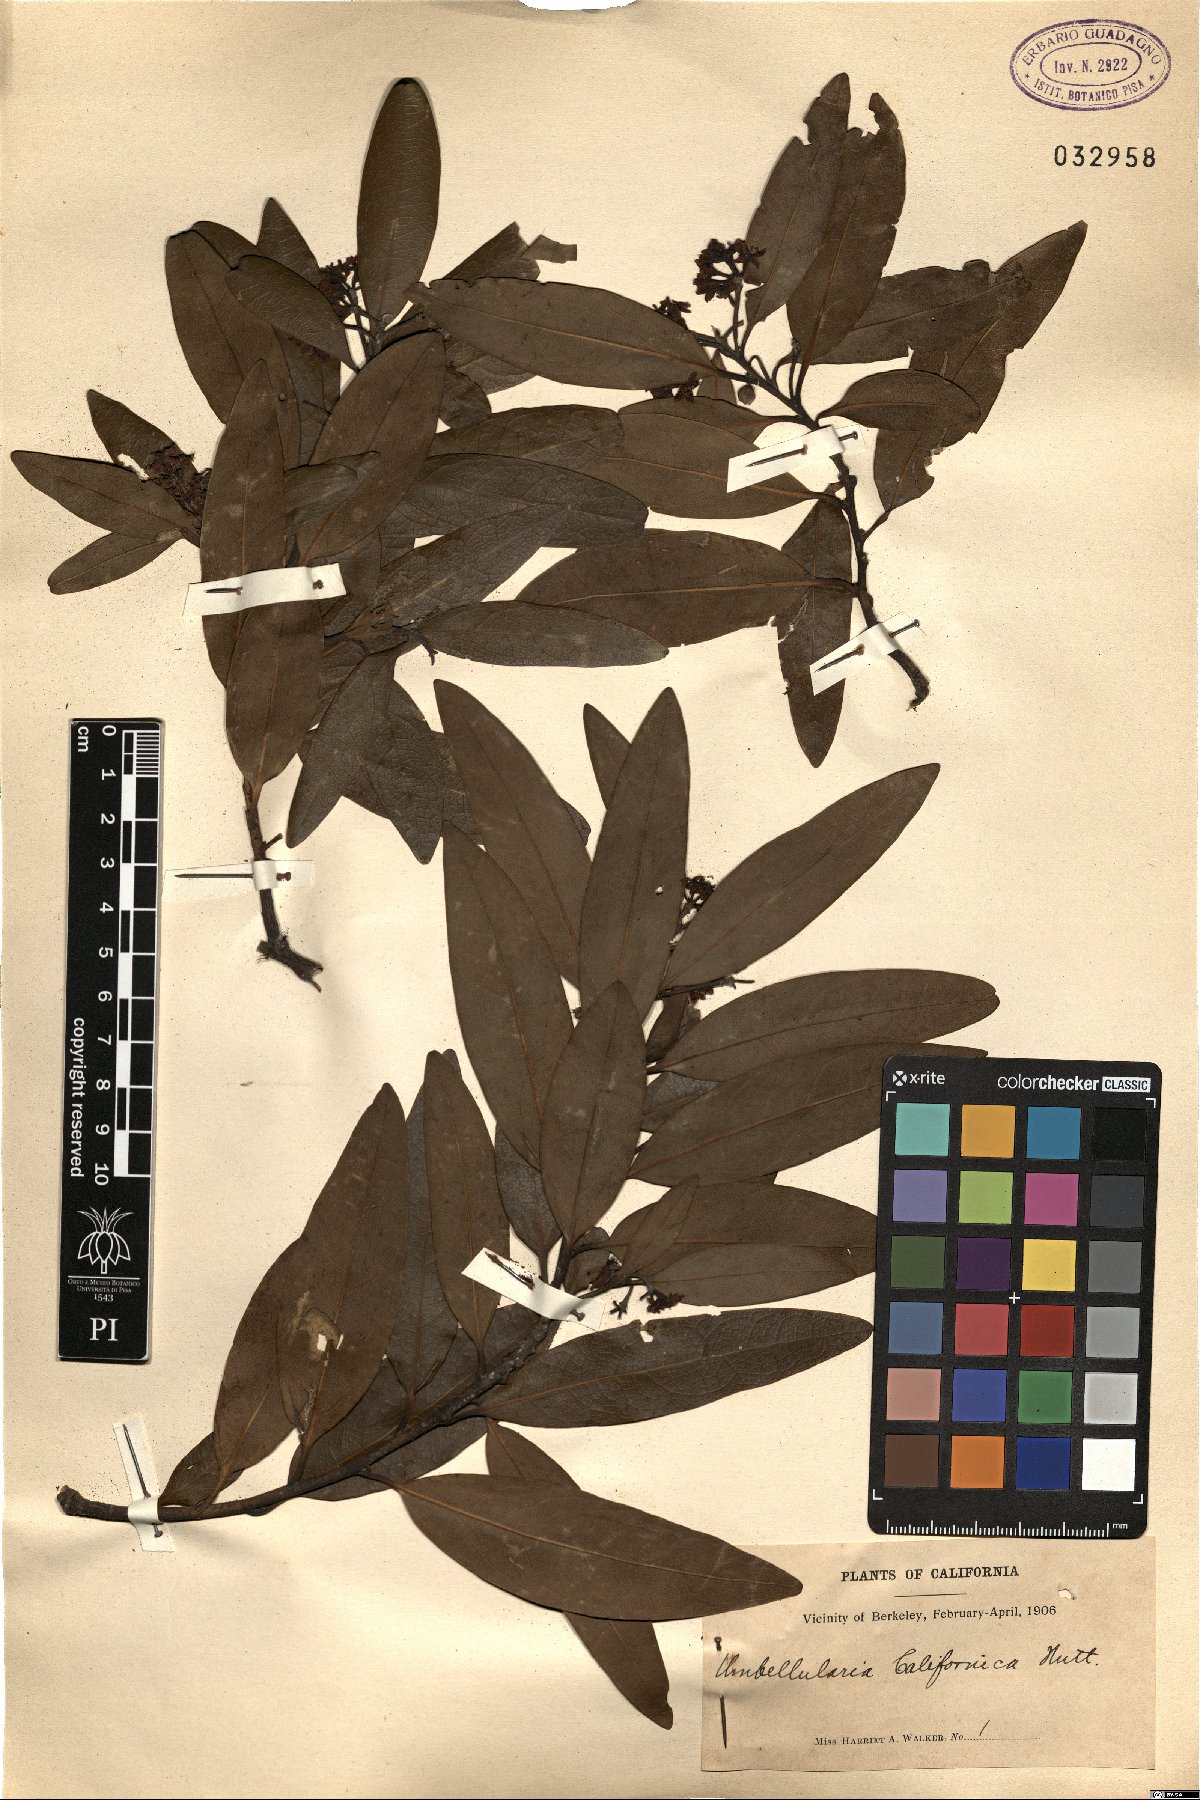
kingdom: Plantae
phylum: Tracheophyta
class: Magnoliopsida
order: Laurales
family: Lauraceae
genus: Umbellularia
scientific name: Umbellularia californica
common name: California bay
